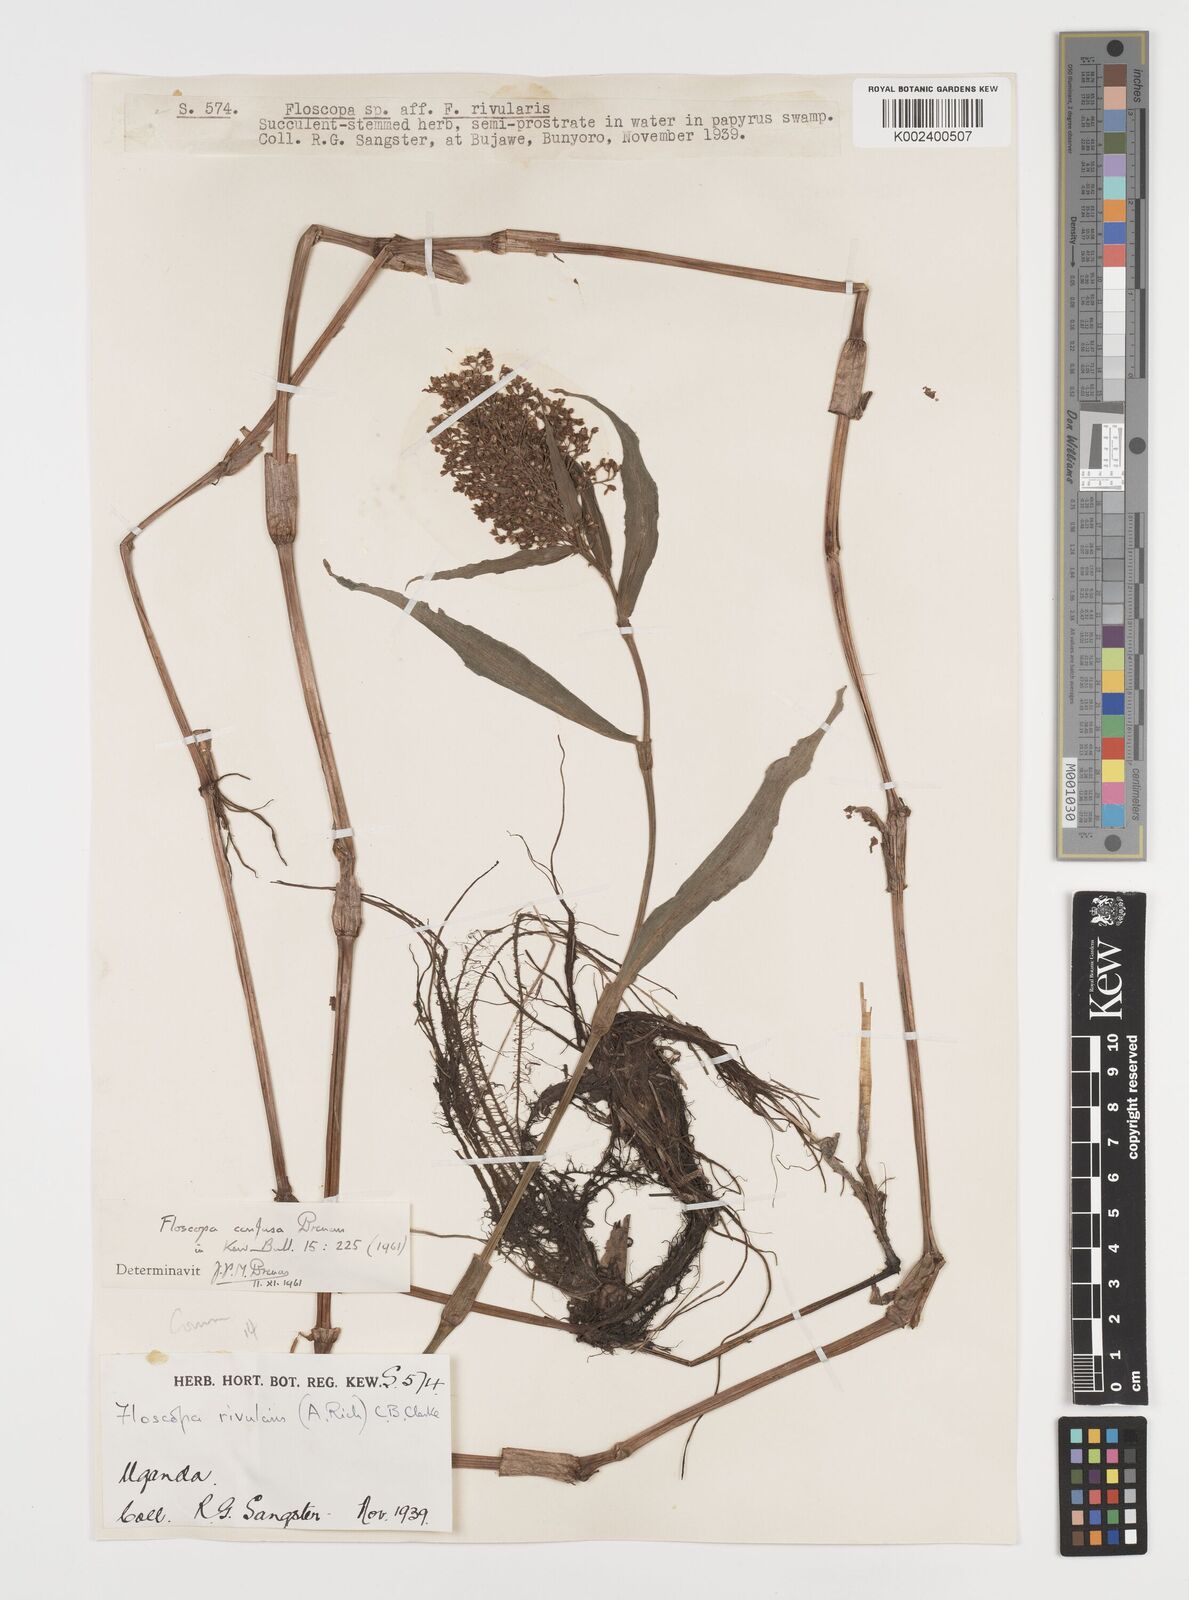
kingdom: Plantae
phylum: Tracheophyta
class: Liliopsida
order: Commelinales
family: Commelinaceae
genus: Floscopa
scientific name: Floscopa confusa
